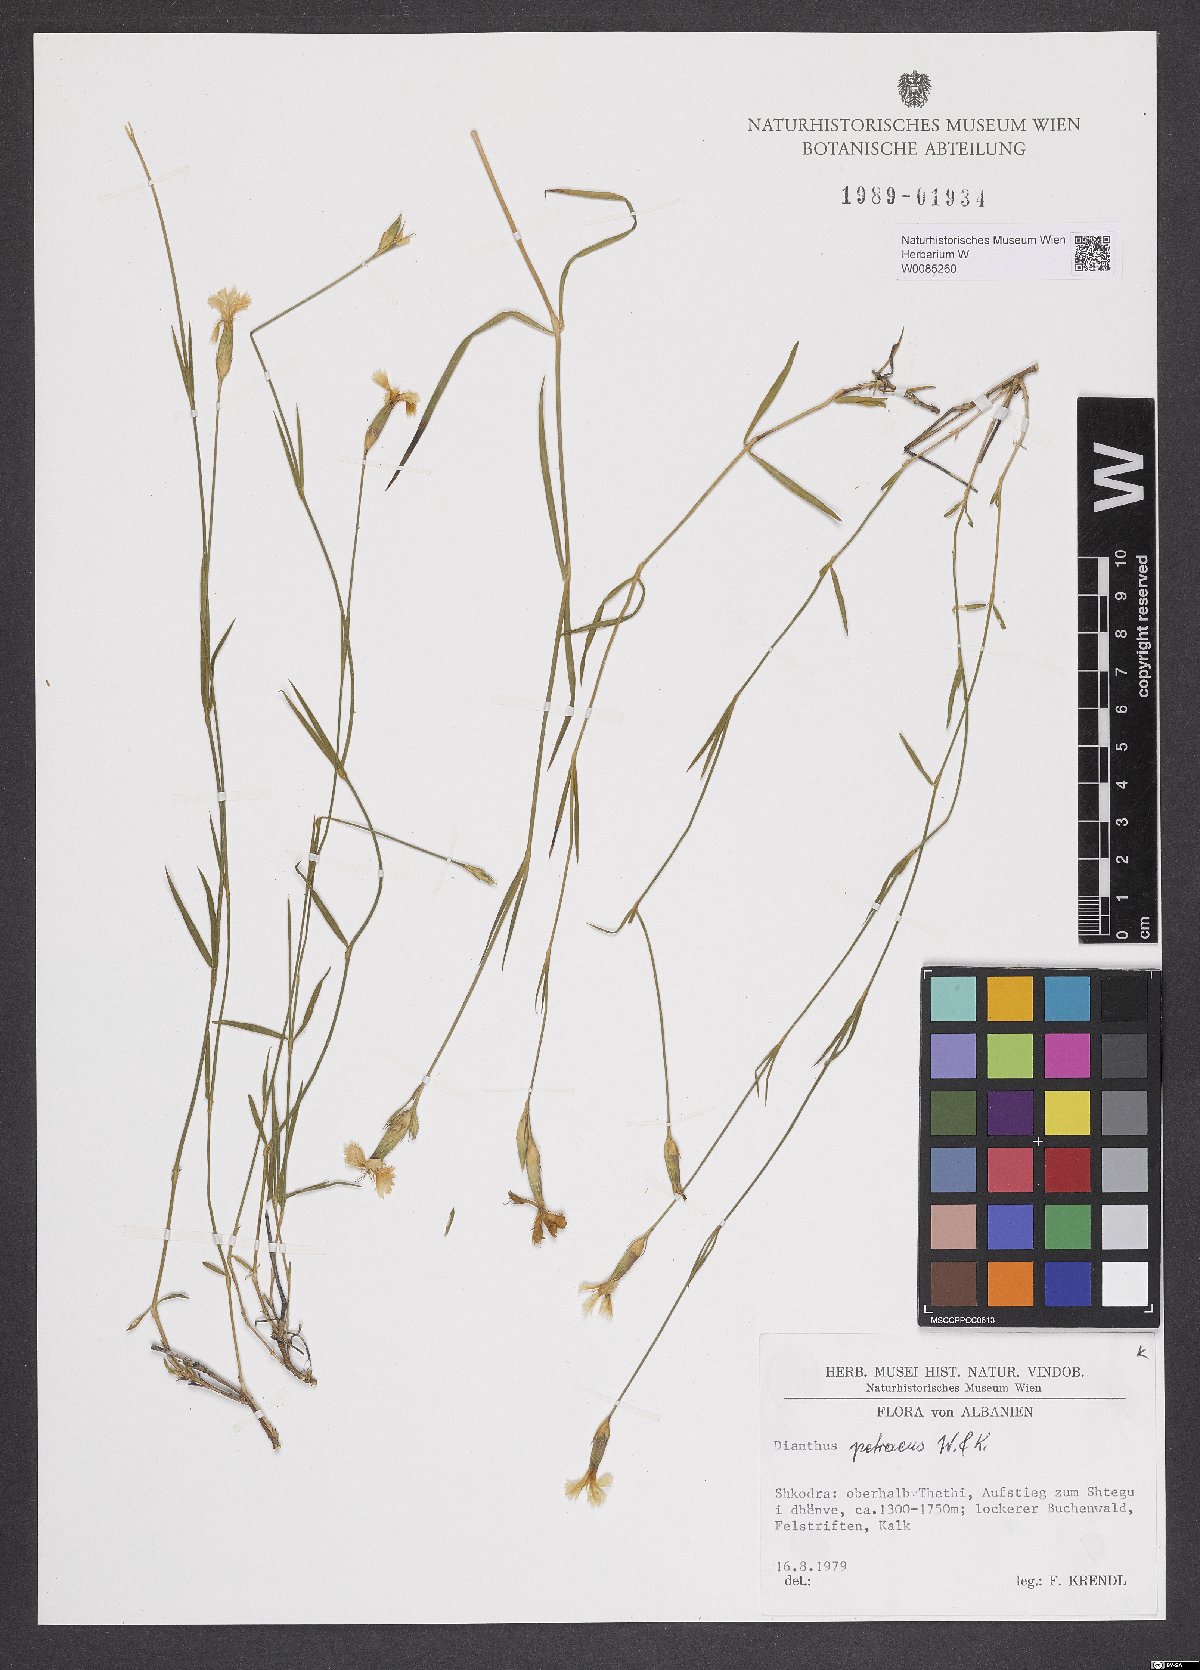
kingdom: Plantae
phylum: Tracheophyta
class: Magnoliopsida
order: Caryophyllales
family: Caryophyllaceae
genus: Dianthus
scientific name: Dianthus petraeus
